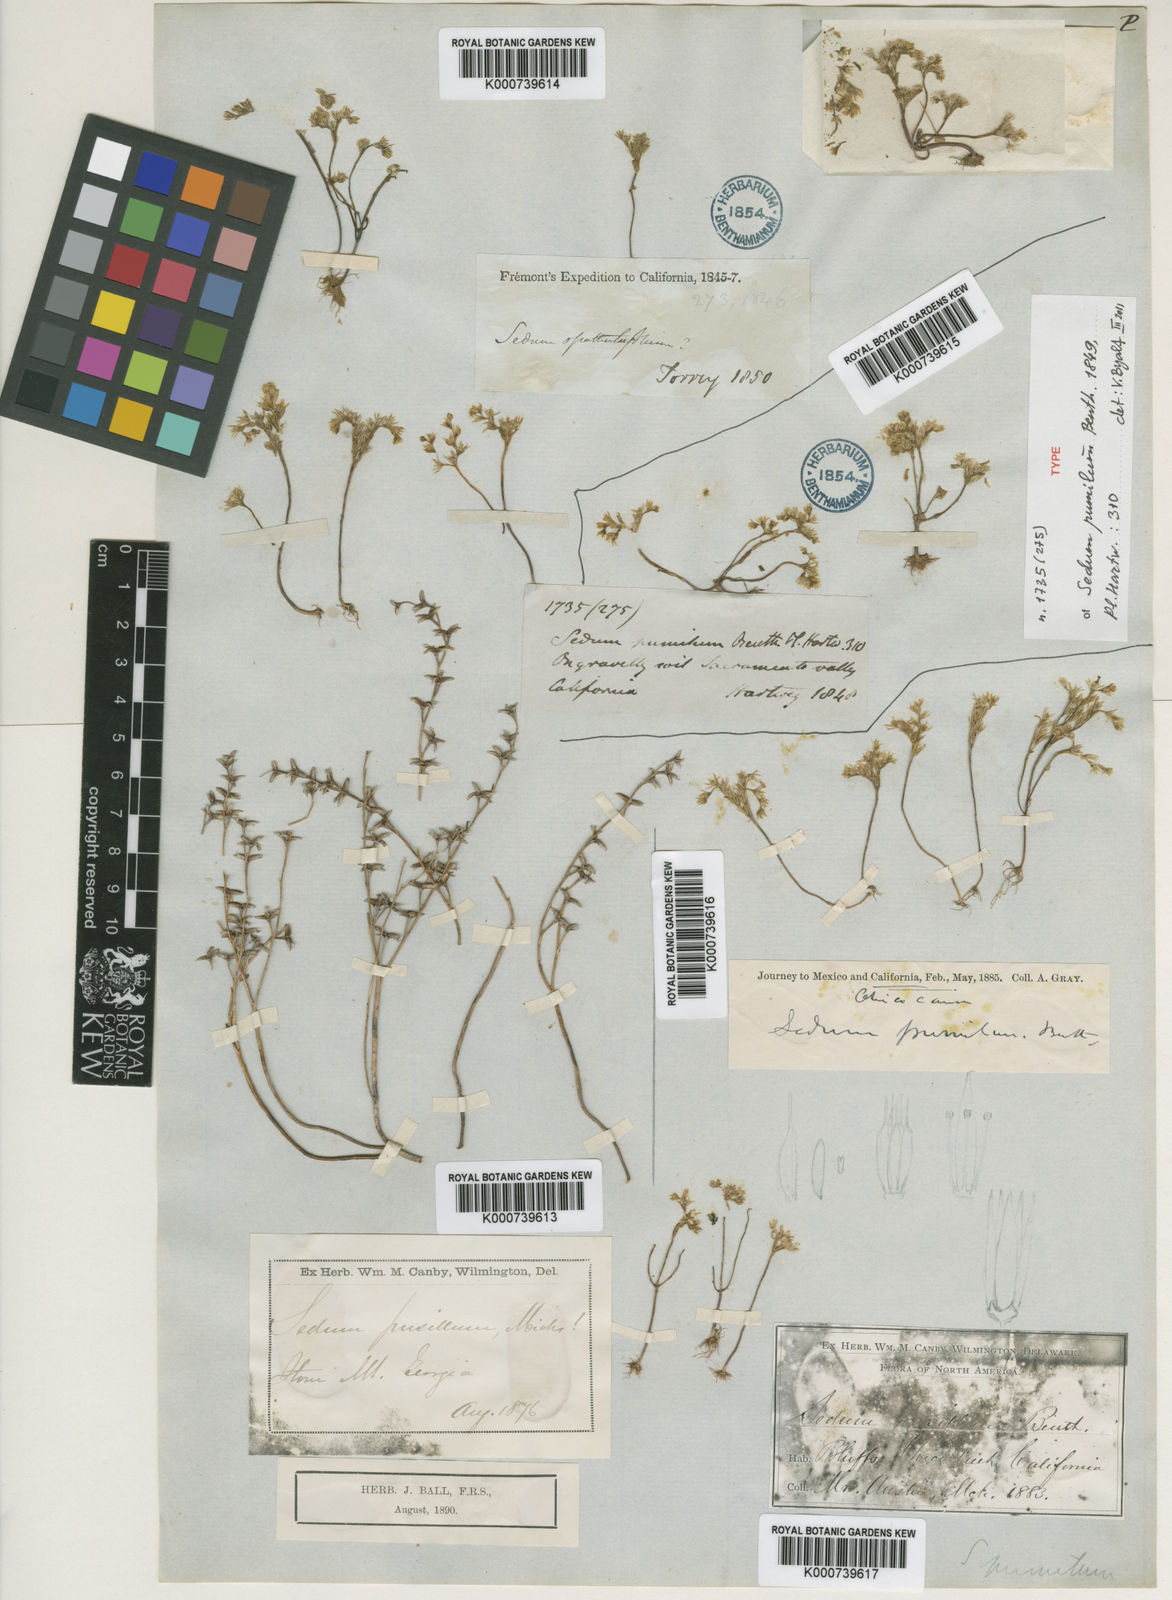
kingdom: Plantae
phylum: Tracheophyta
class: Magnoliopsida
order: Saxifragales
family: Crassulaceae
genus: Sedella
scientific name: Sedella pumila
